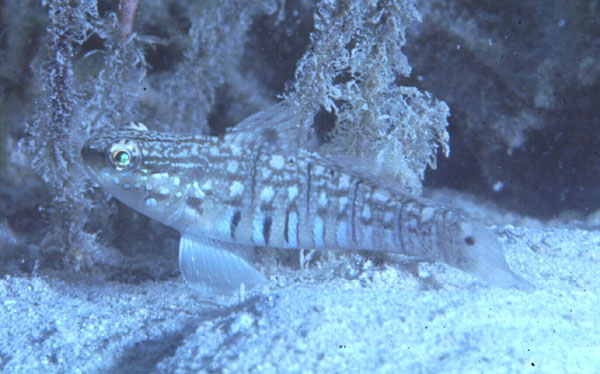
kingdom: Animalia
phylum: Chordata
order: Perciformes
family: Gobiidae
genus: Amblygobius
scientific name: Amblygobius semicinctus
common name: Halfbarred goby
